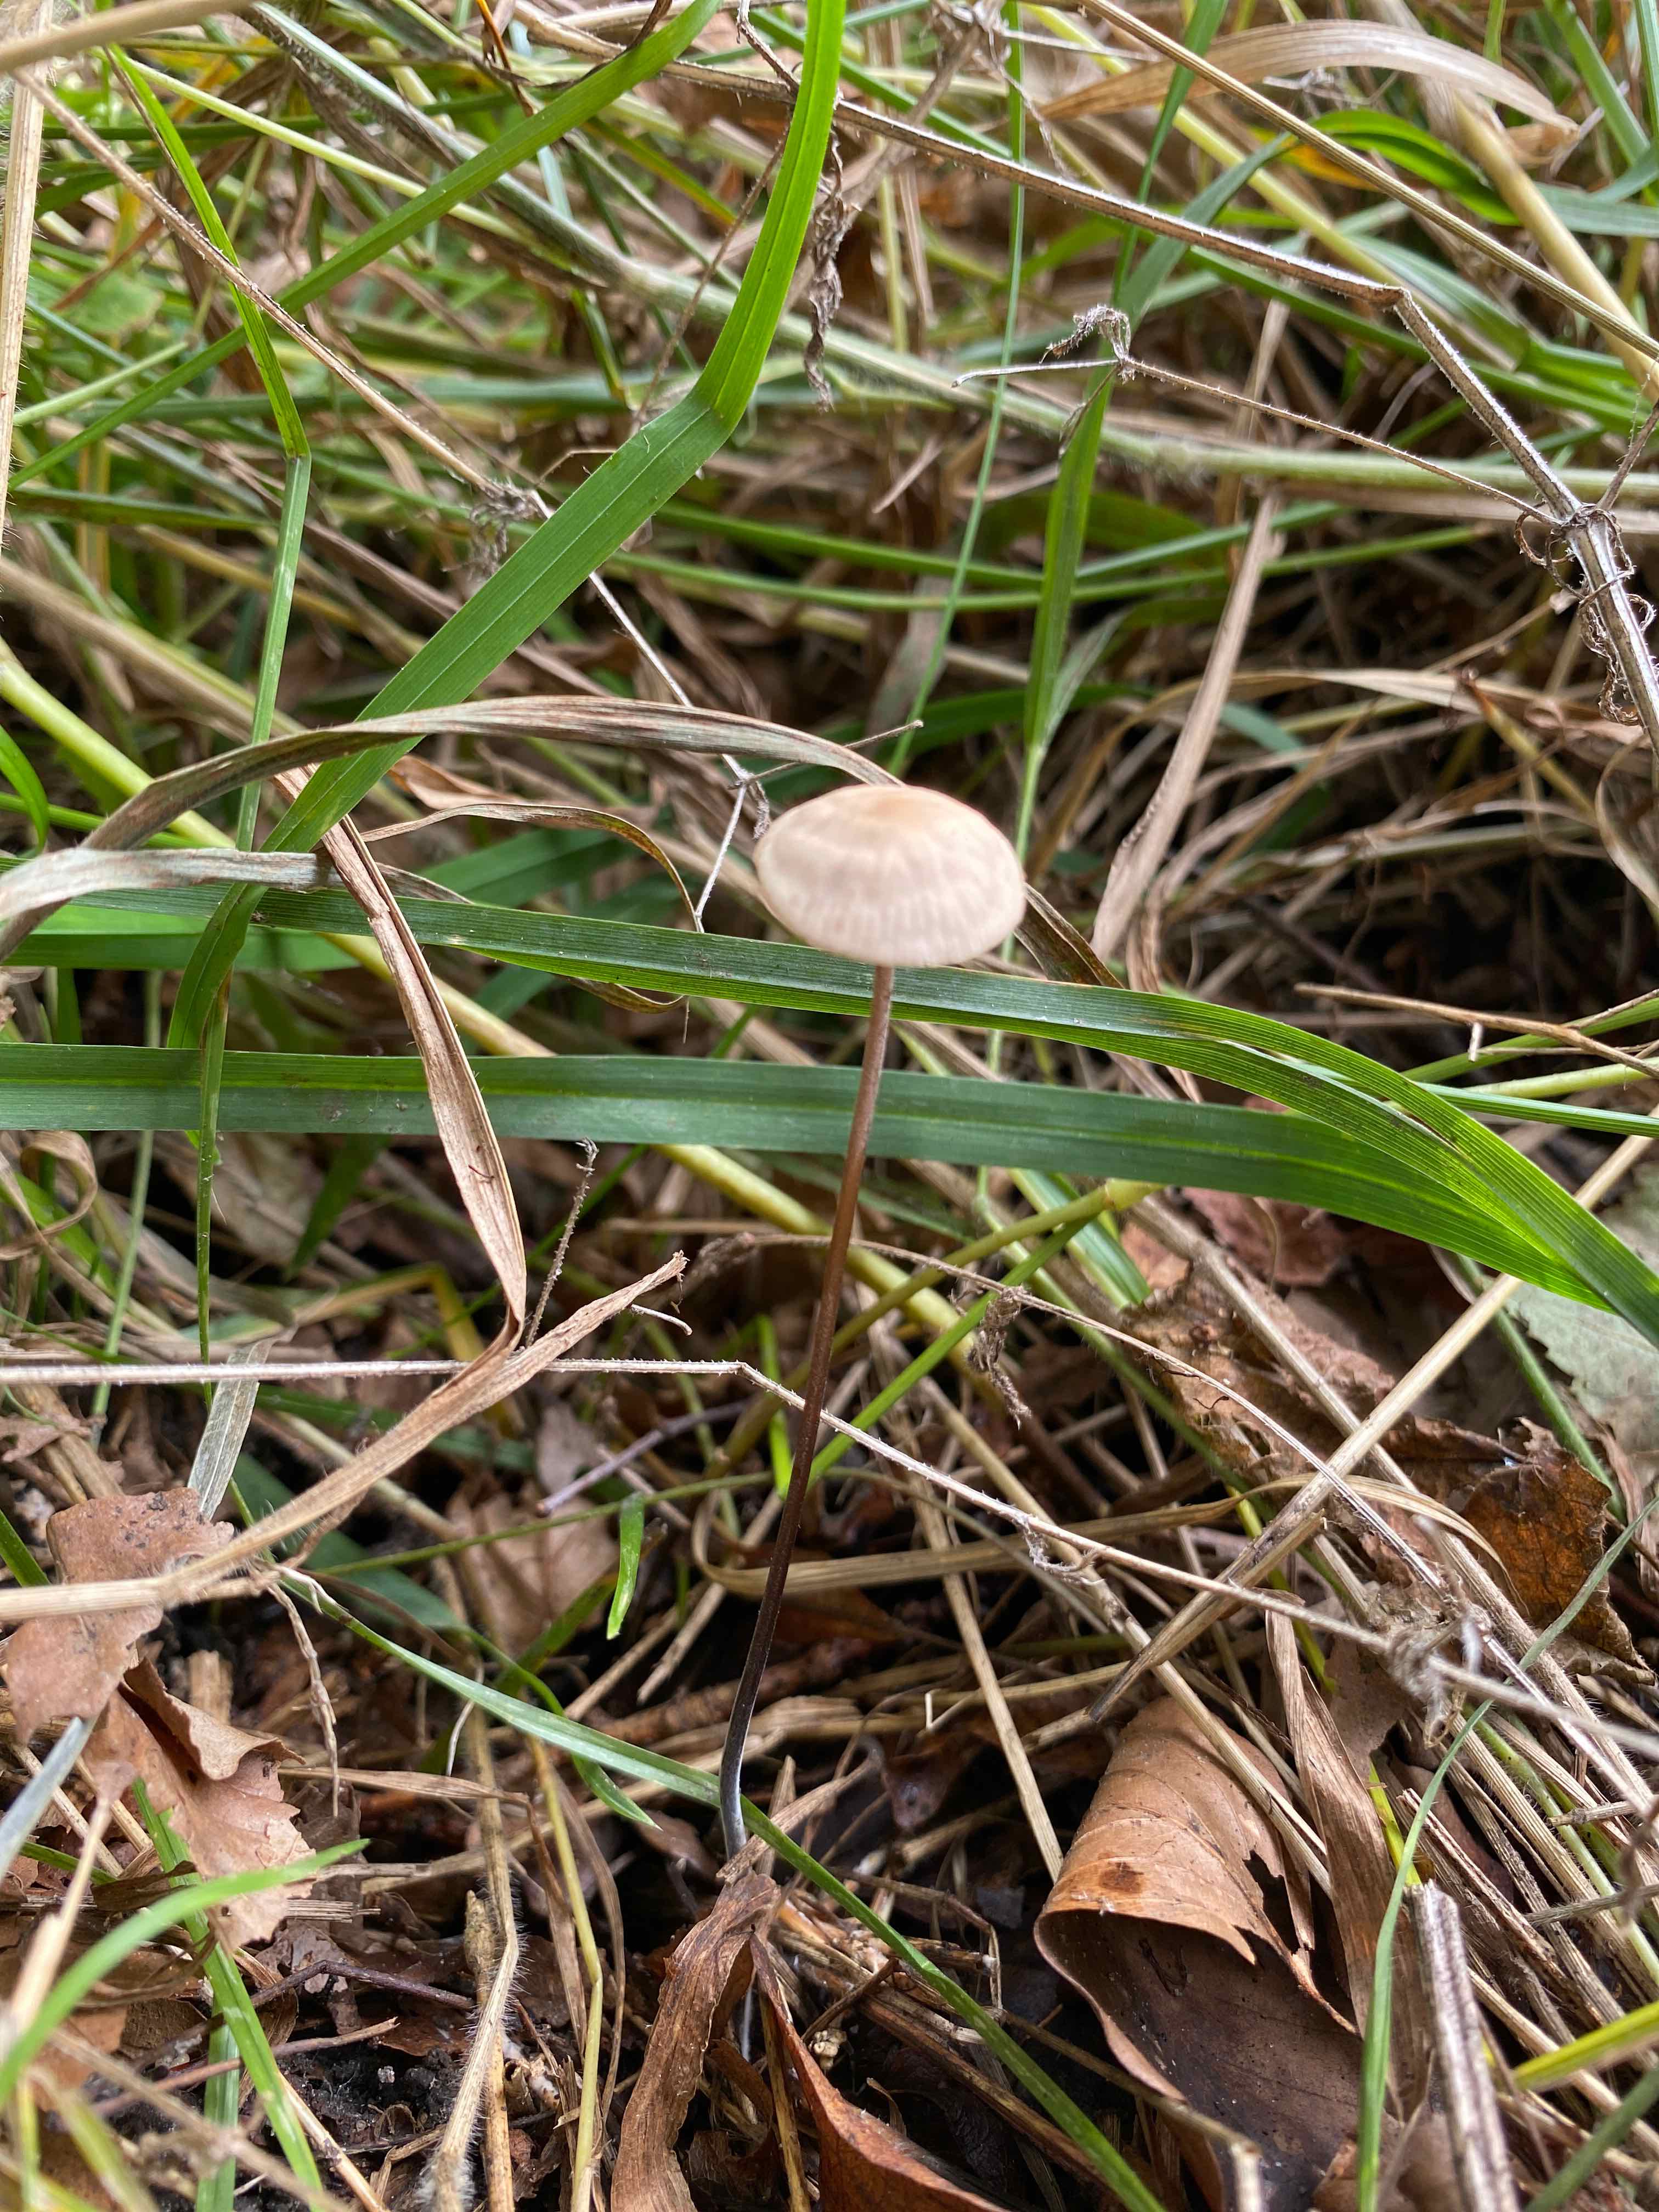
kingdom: Fungi
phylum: Basidiomycota
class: Agaricomycetes
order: Agaricales
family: Omphalotaceae
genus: Mycetinis
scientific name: Mycetinis alliaceus
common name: stor løghat
